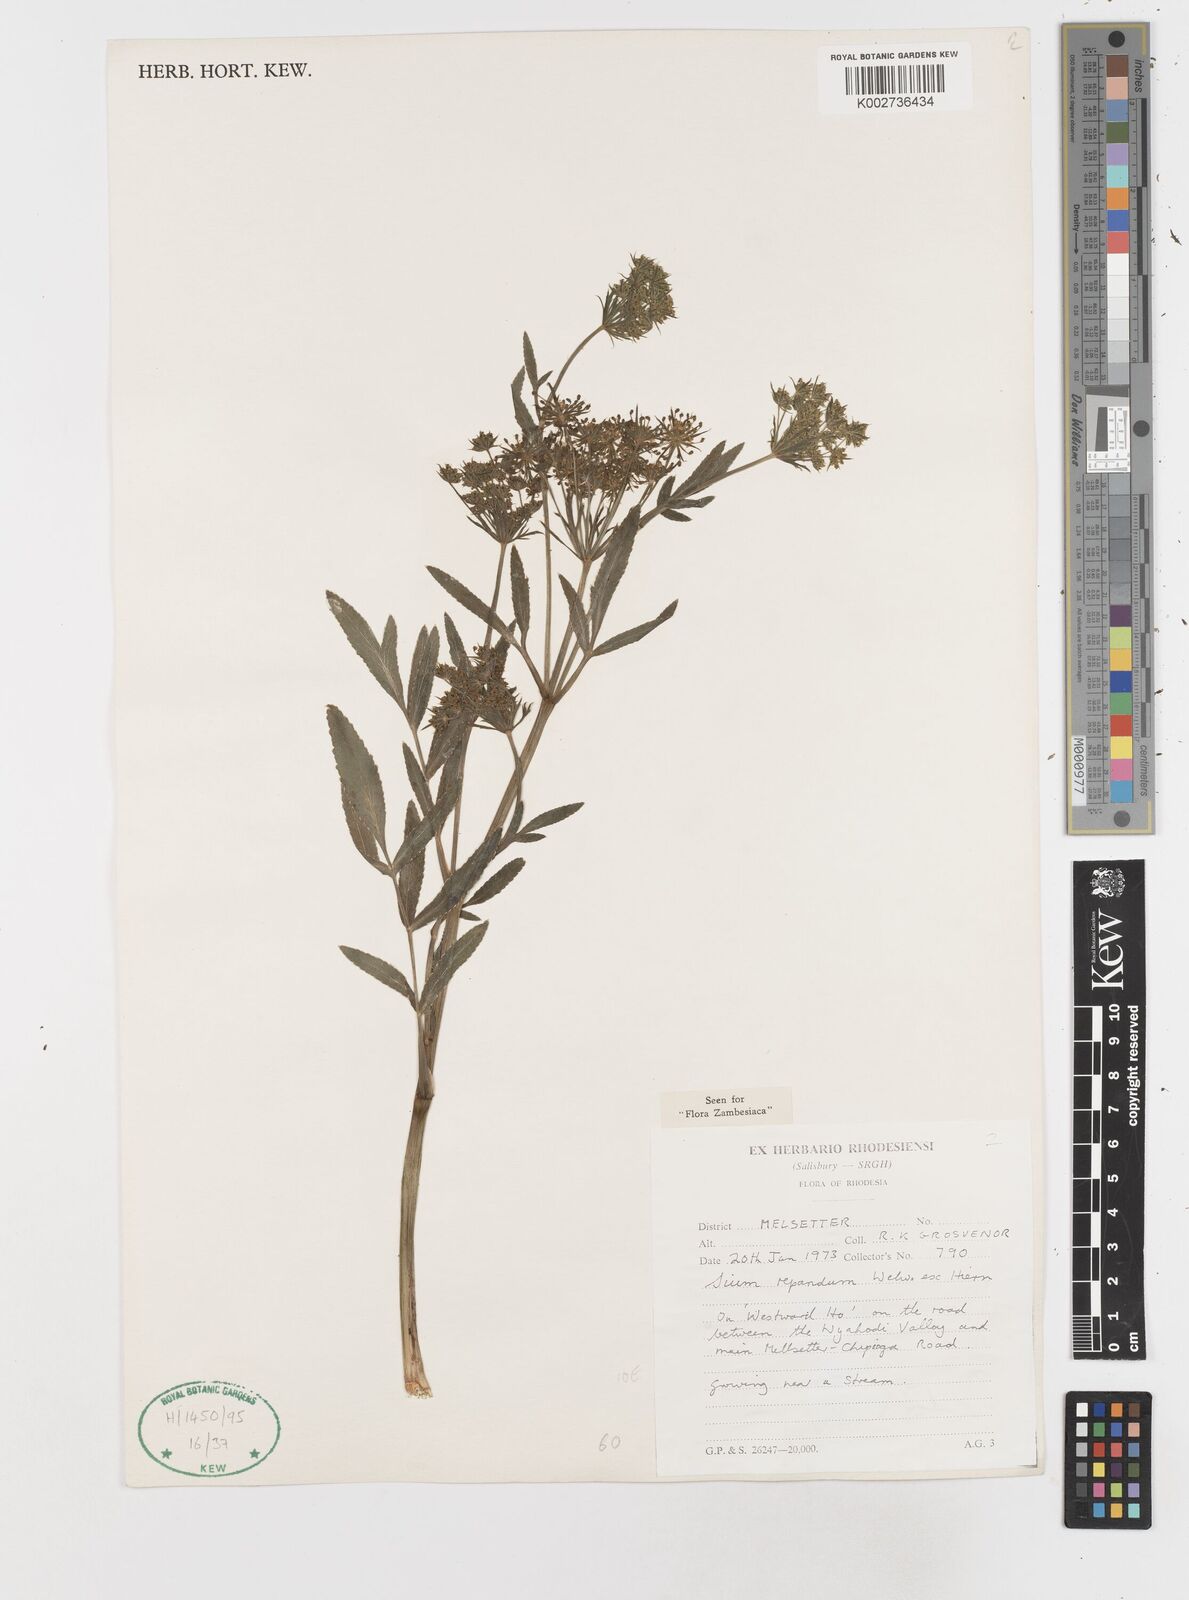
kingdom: Plantae
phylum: Tracheophyta
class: Magnoliopsida
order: Apiales
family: Apiaceae
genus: Berula
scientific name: Berula repanda
